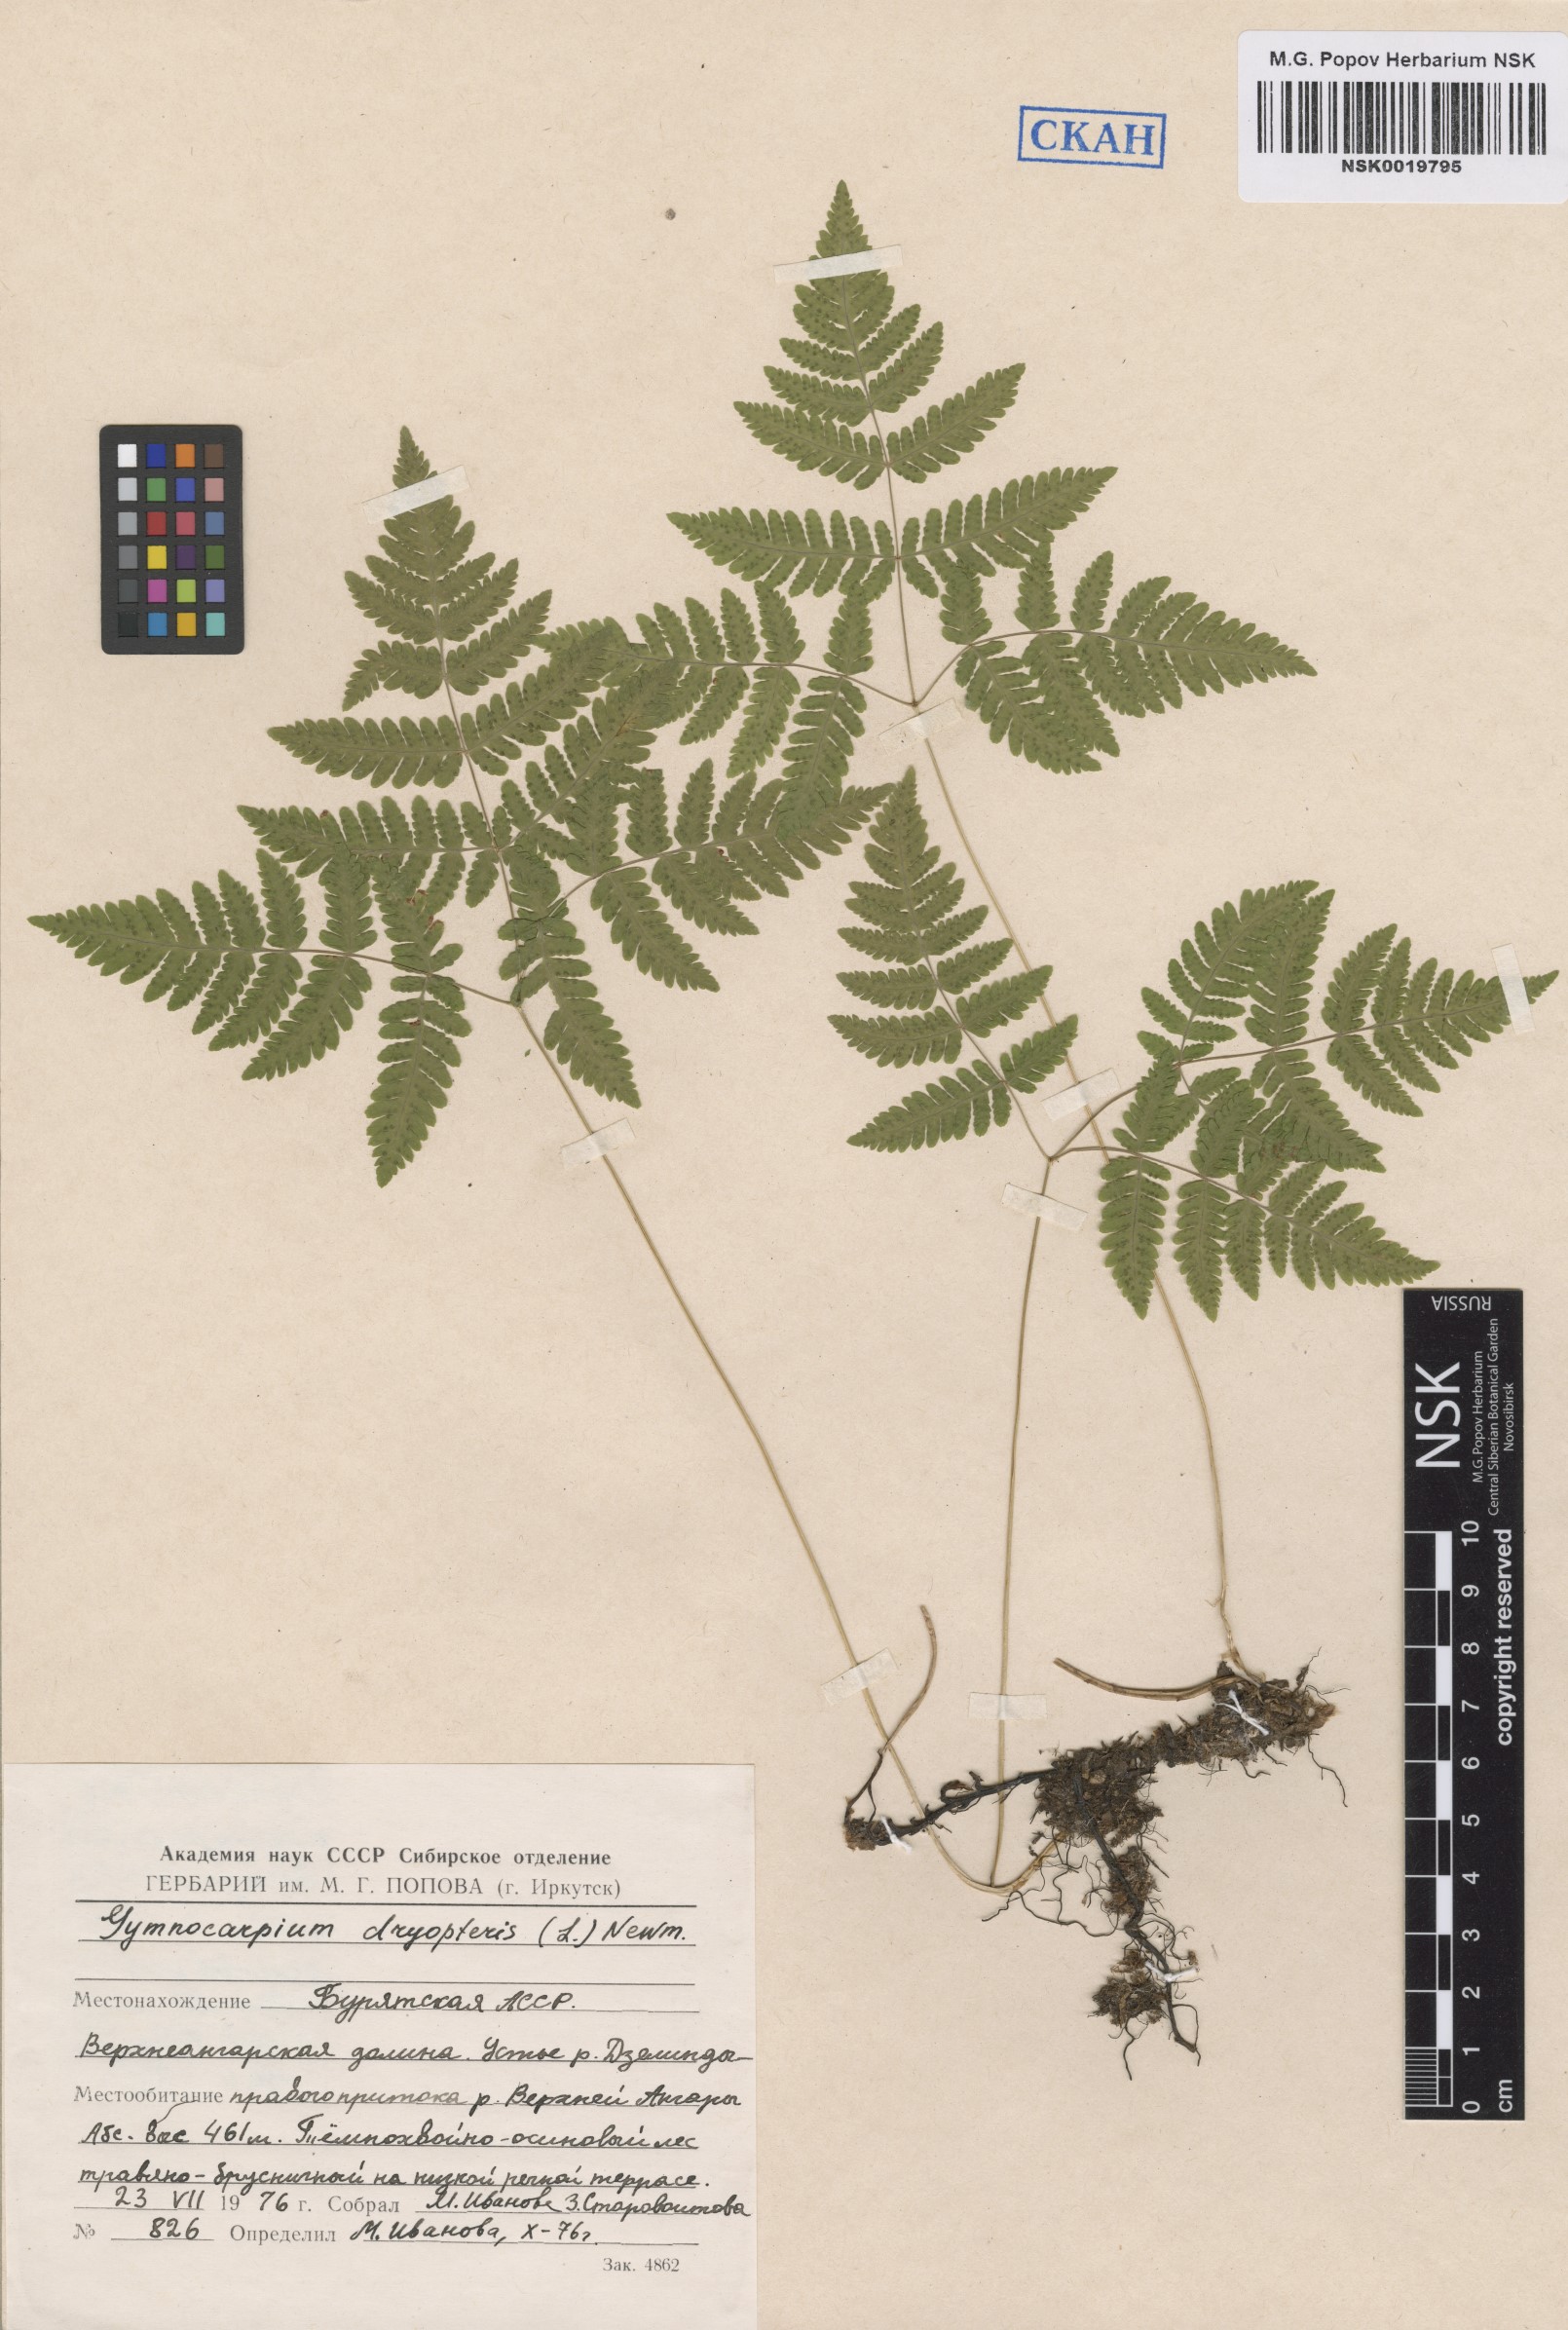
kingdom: Plantae
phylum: Tracheophyta
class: Polypodiopsida
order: Polypodiales
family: Cystopteridaceae
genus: Gymnocarpium
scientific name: Gymnocarpium dryopteris
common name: Oak fern
